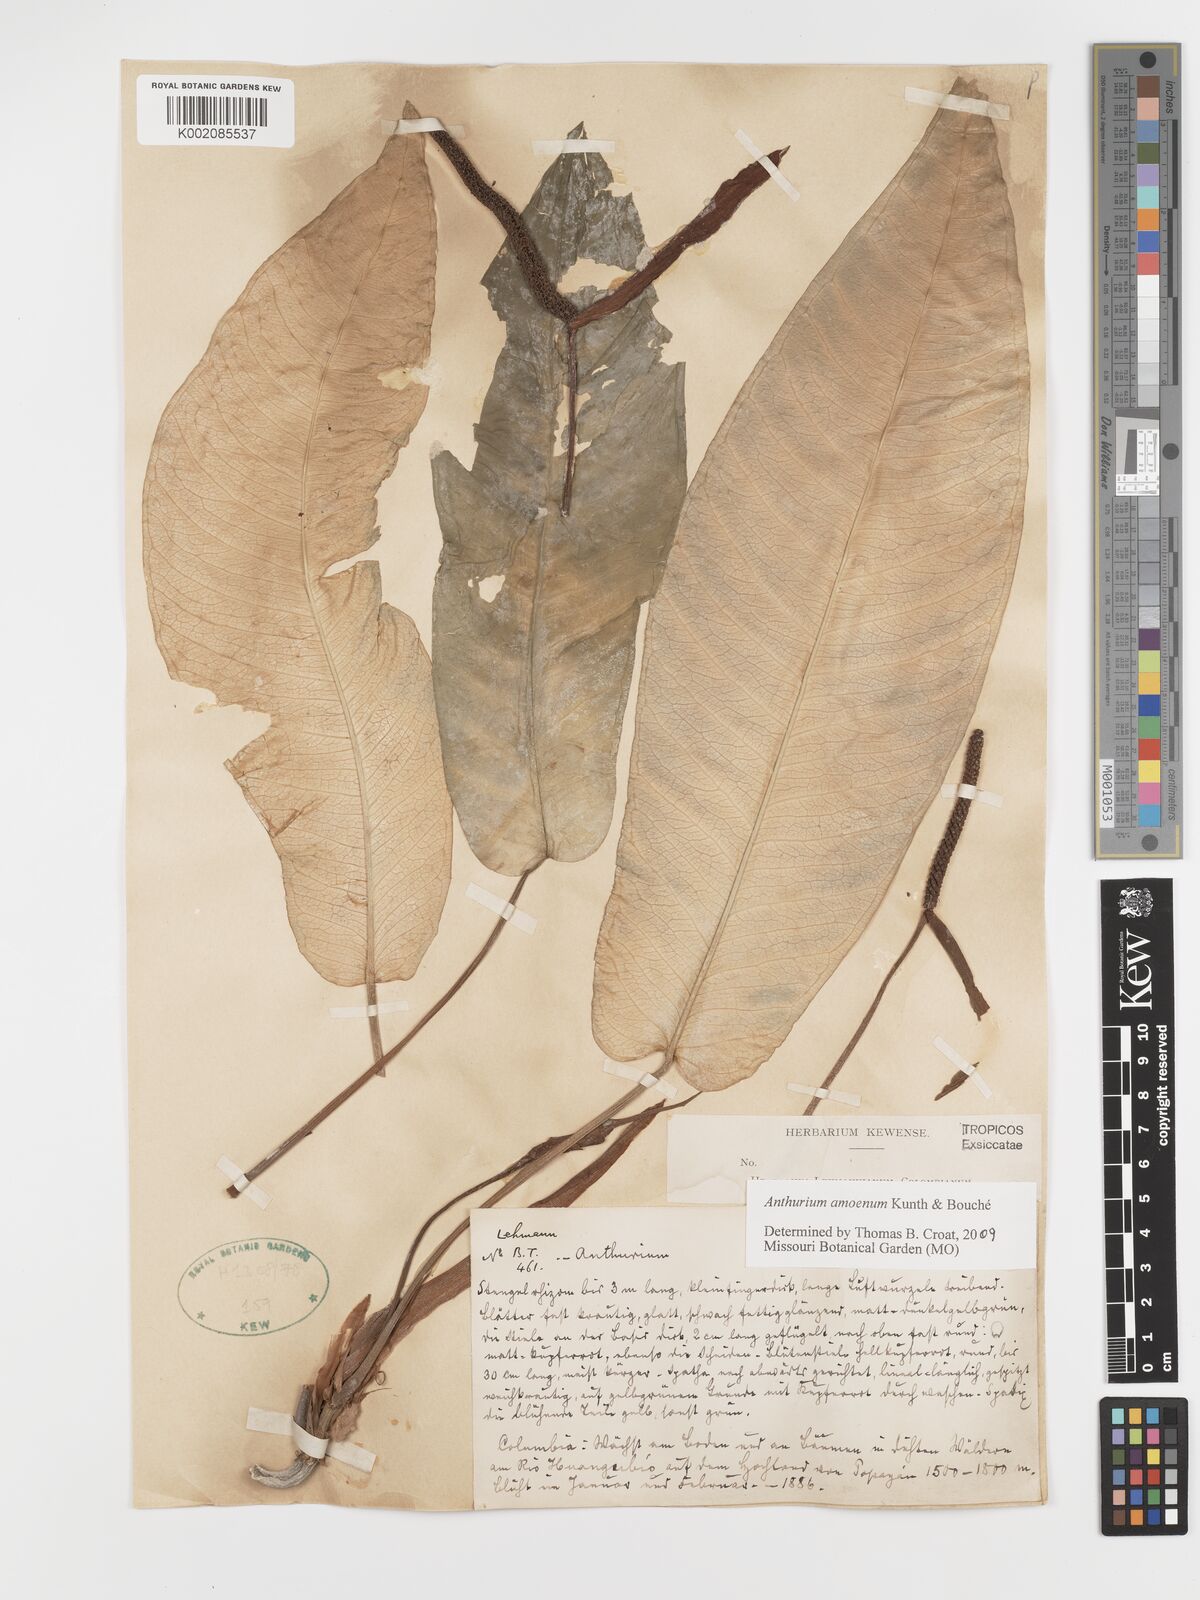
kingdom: Plantae
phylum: Tracheophyta
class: Liliopsida
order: Alismatales
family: Araceae
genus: Anthurium
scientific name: Anthurium amoenum
